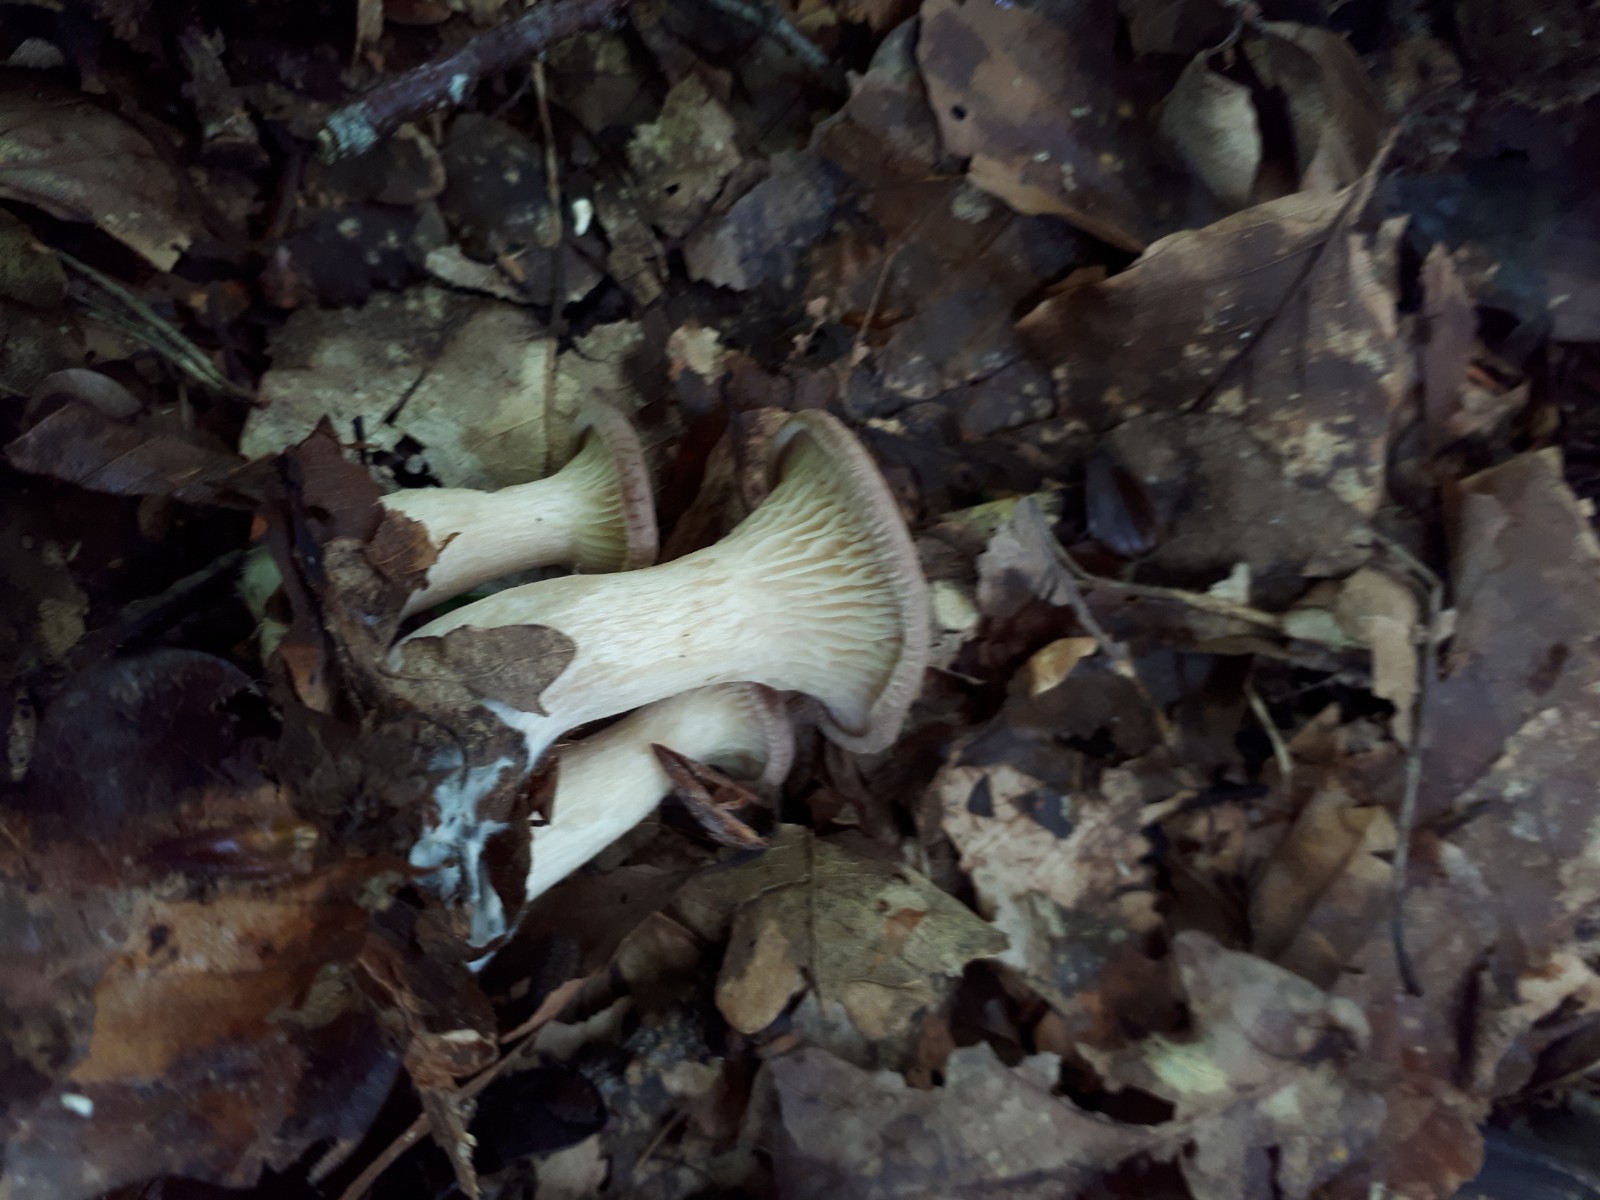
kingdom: Fungi
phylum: Basidiomycota
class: Agaricomycetes
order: Agaricales
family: Tricholomataceae
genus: Infundibulicybe
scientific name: Infundibulicybe gibba
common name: almindelig tragthat
